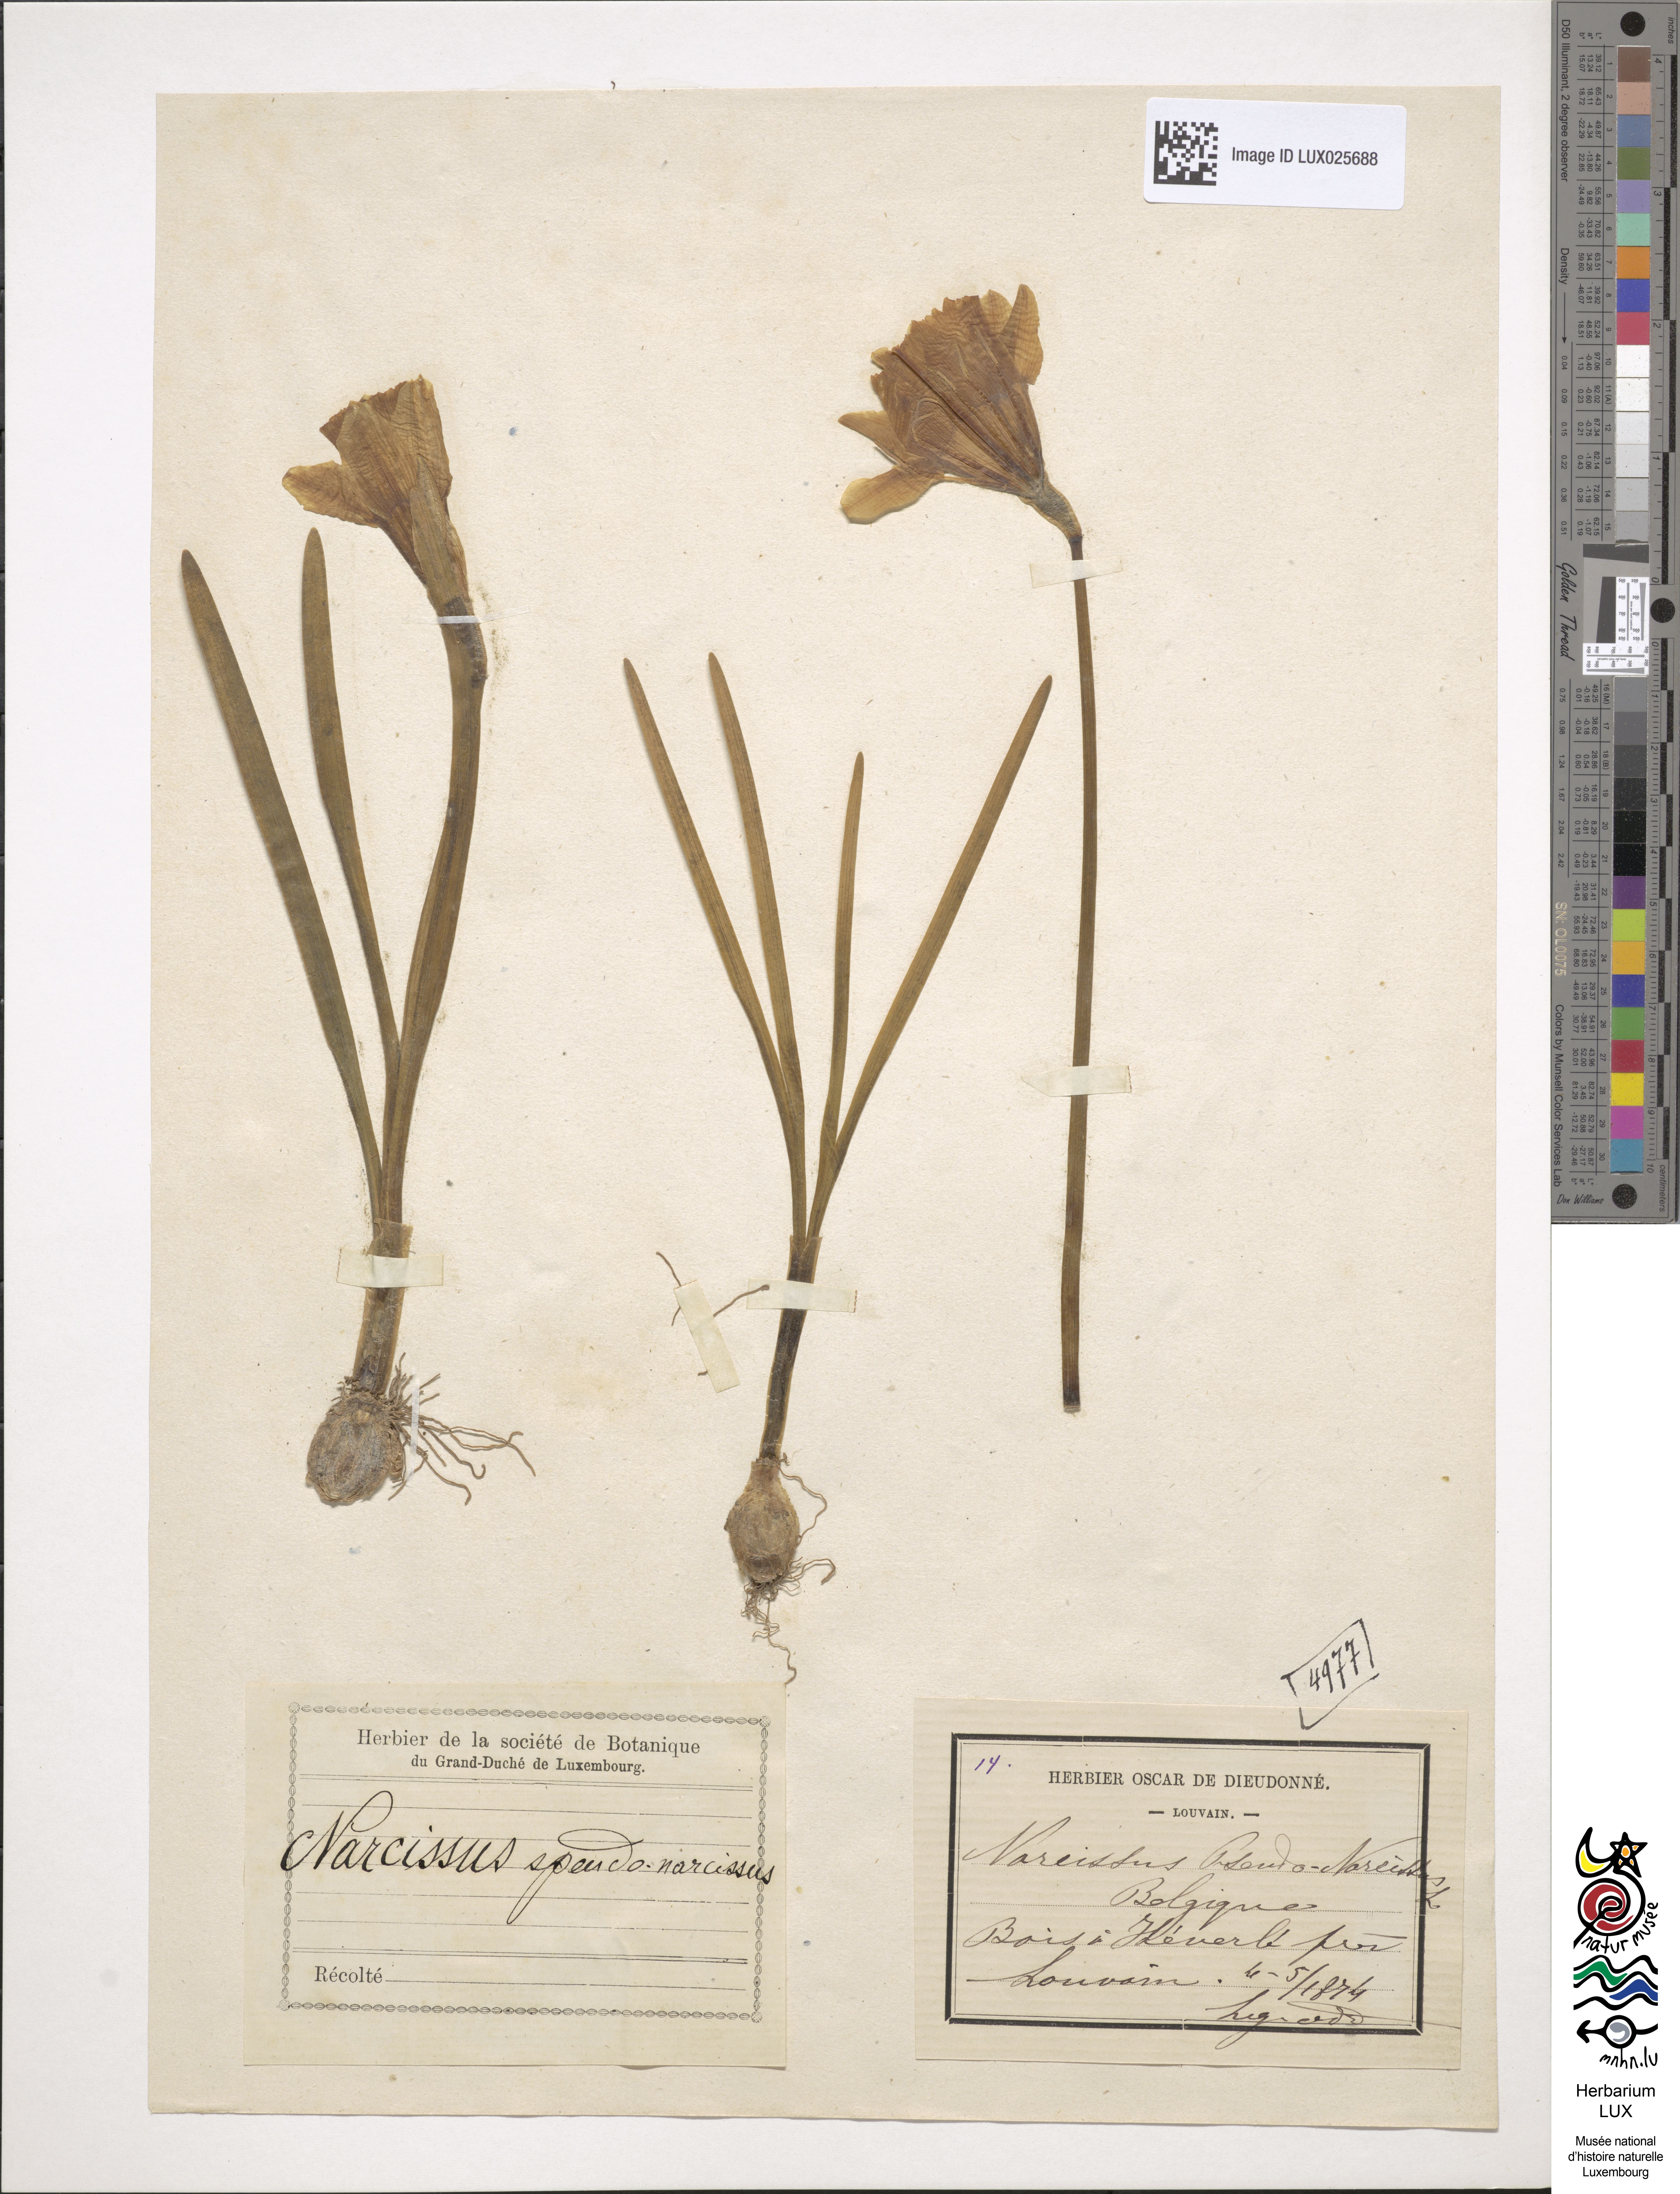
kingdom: Plantae
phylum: Tracheophyta
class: Liliopsida
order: Asparagales
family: Amaryllidaceae
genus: Narcissus
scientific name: Narcissus pseudonarcissus
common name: Daffodil
